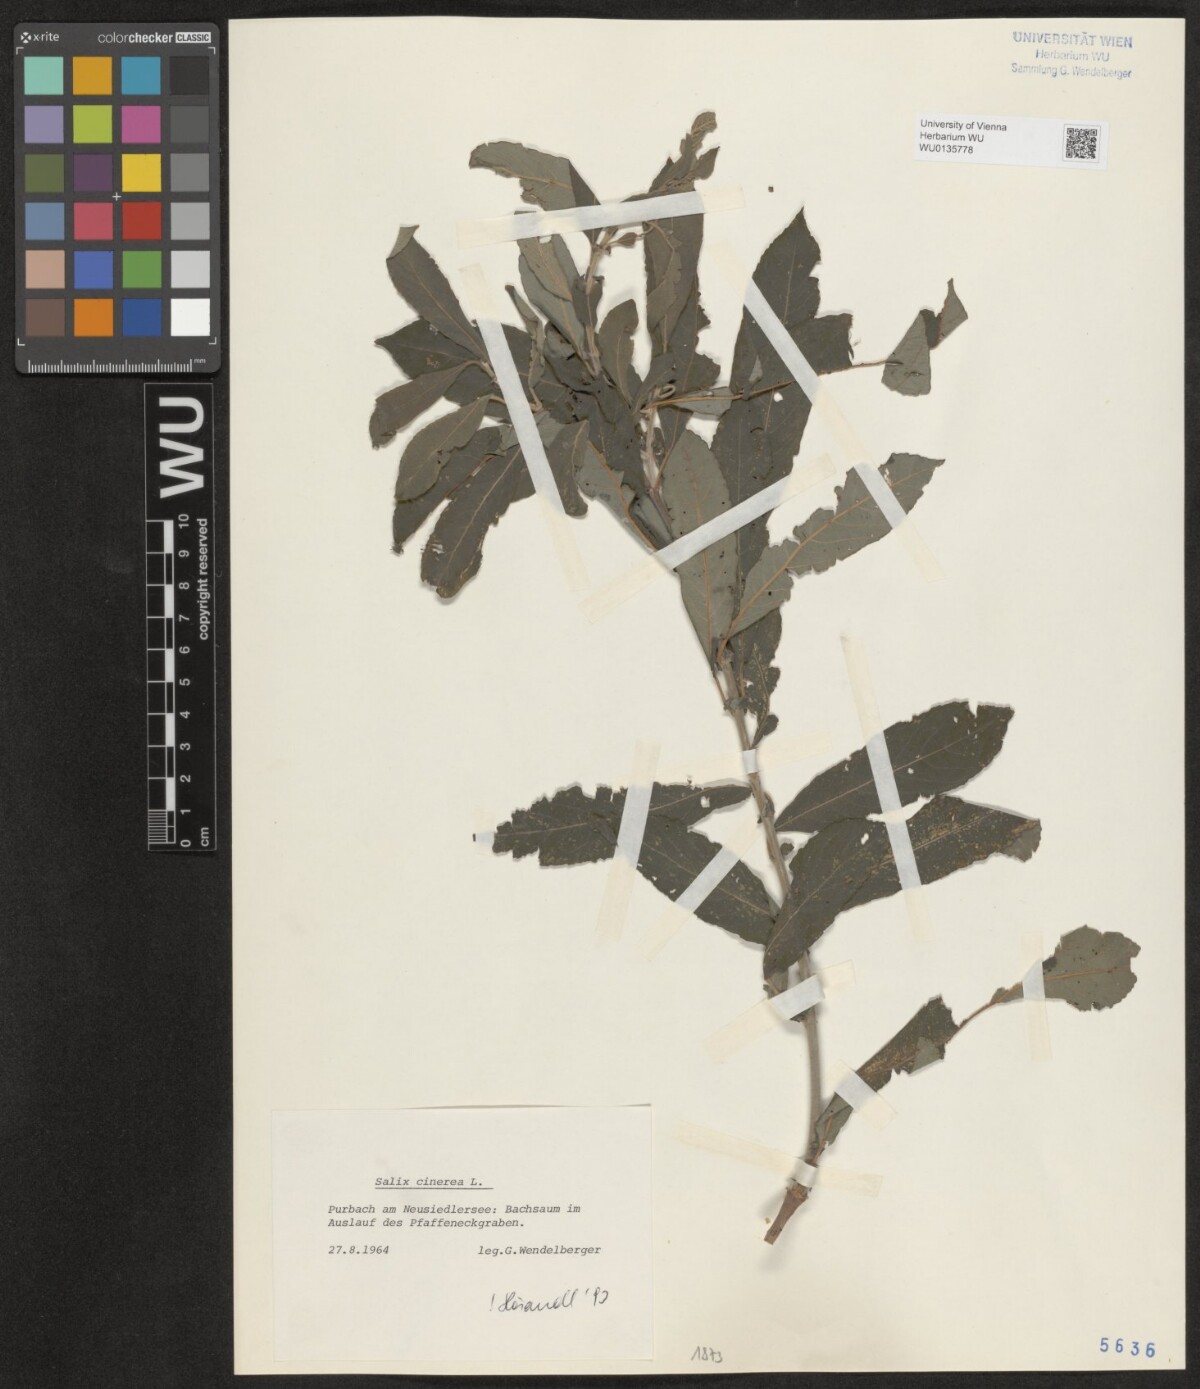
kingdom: Plantae
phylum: Tracheophyta
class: Magnoliopsida
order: Malpighiales
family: Salicaceae
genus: Salix
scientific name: Salix cinerea
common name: Common sallow
